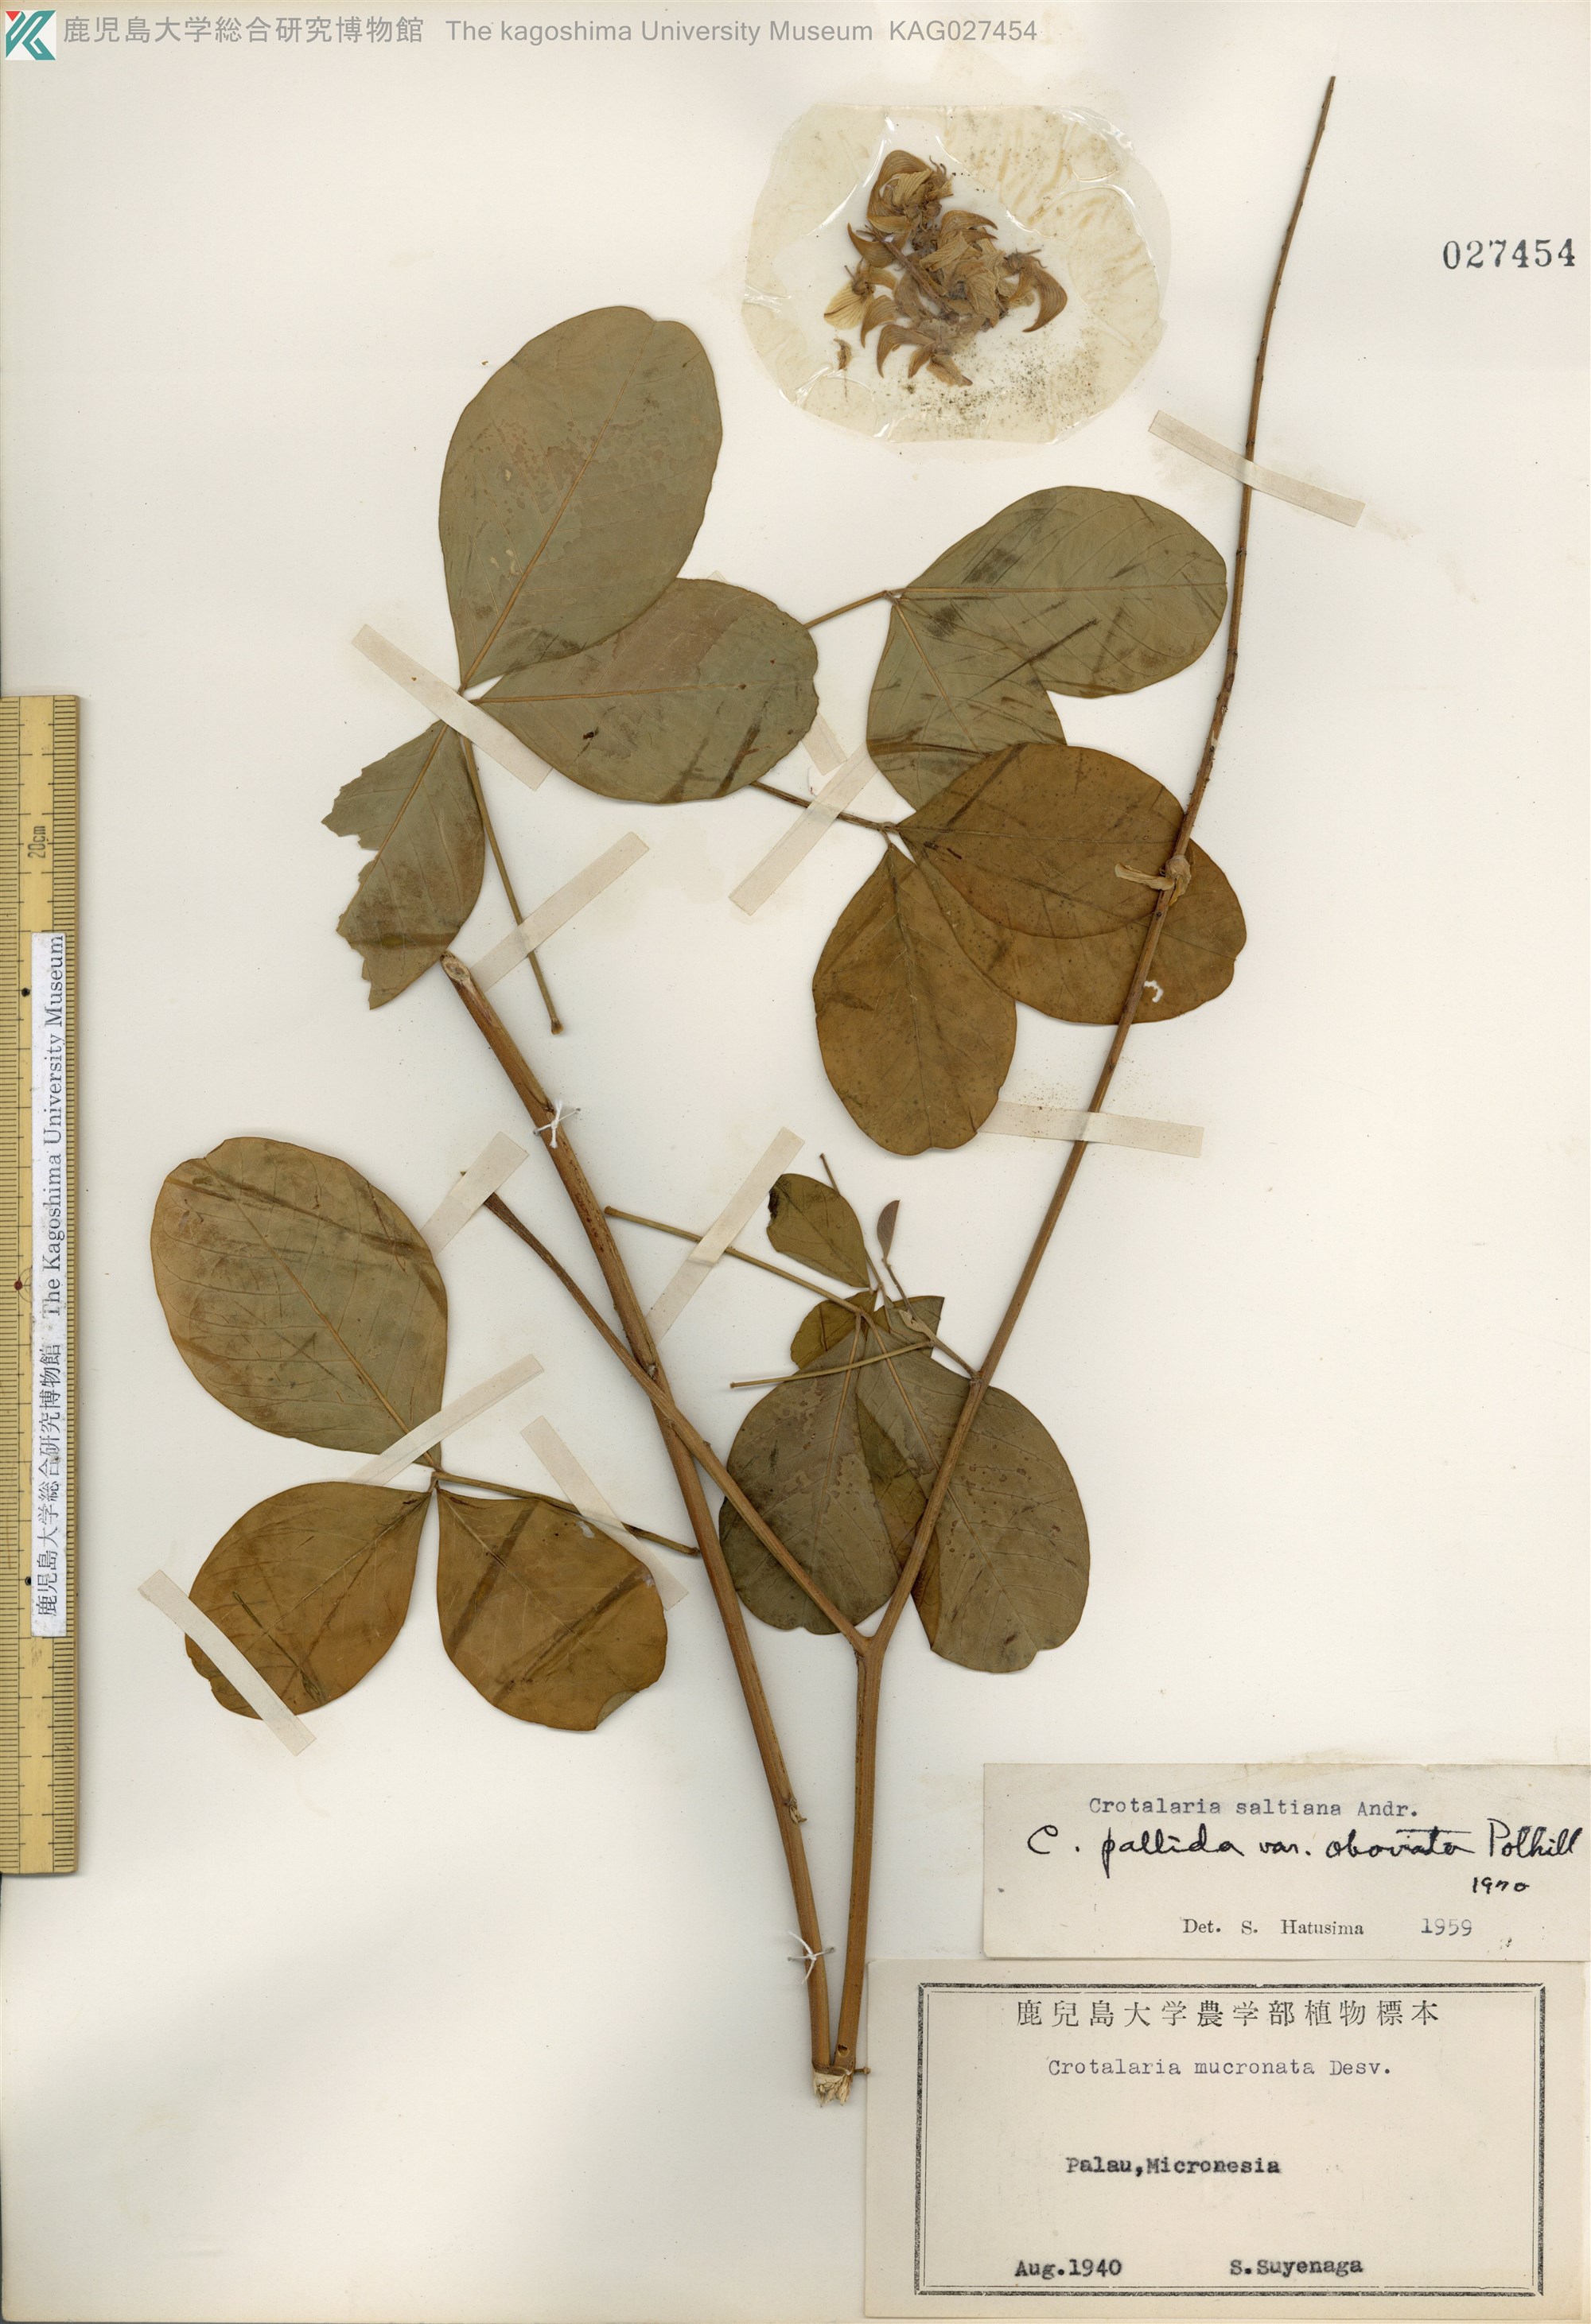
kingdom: Plantae
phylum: Tracheophyta
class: Magnoliopsida
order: Fabales
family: Fabaceae
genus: Crotalaria
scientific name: Crotalaria pallida
